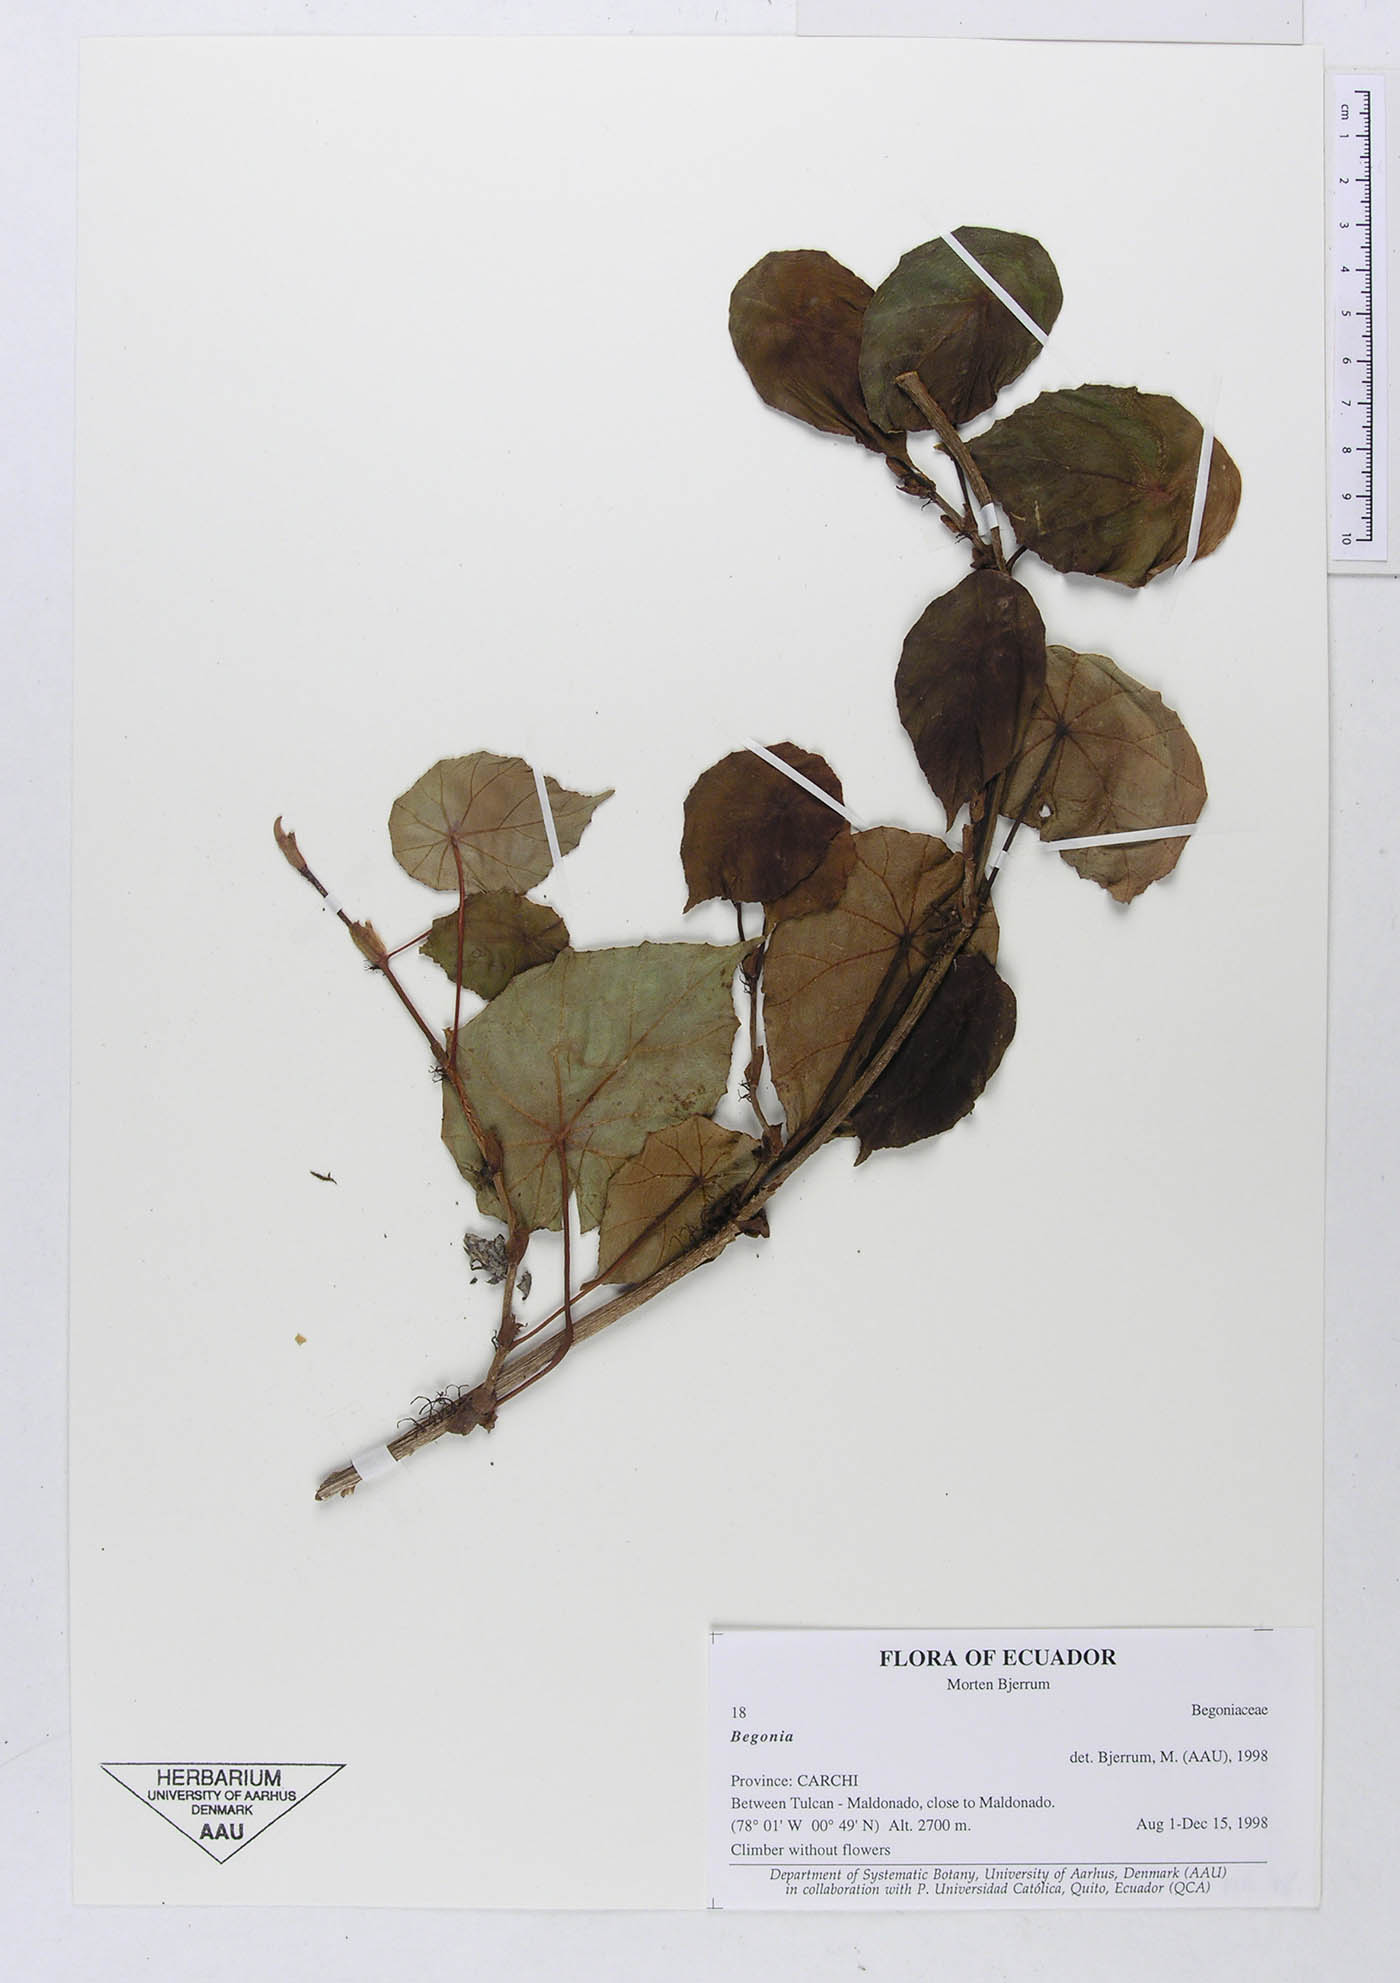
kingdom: Plantae
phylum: Tracheophyta
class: Magnoliopsida
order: Cucurbitales
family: Begoniaceae
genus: Begonia
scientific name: Begonia
